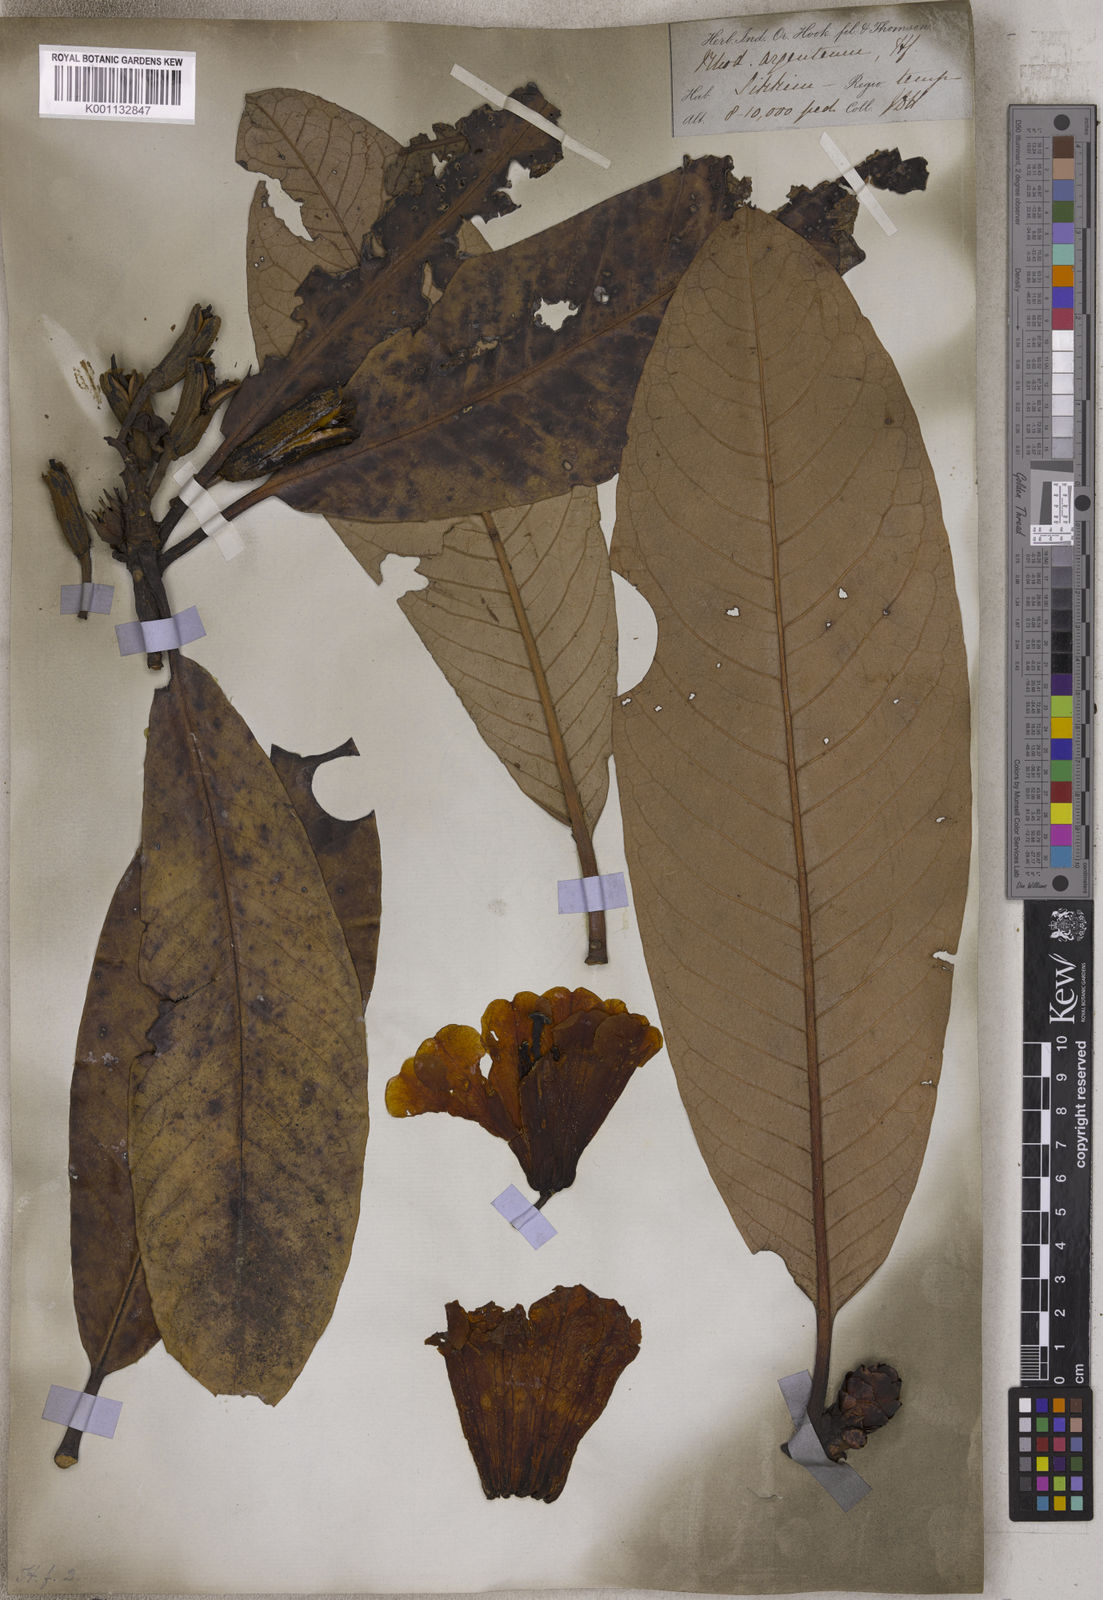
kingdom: Plantae
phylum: Tracheophyta
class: Magnoliopsida
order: Ericales
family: Ericaceae
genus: Rhododendron
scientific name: Rhododendron grande
